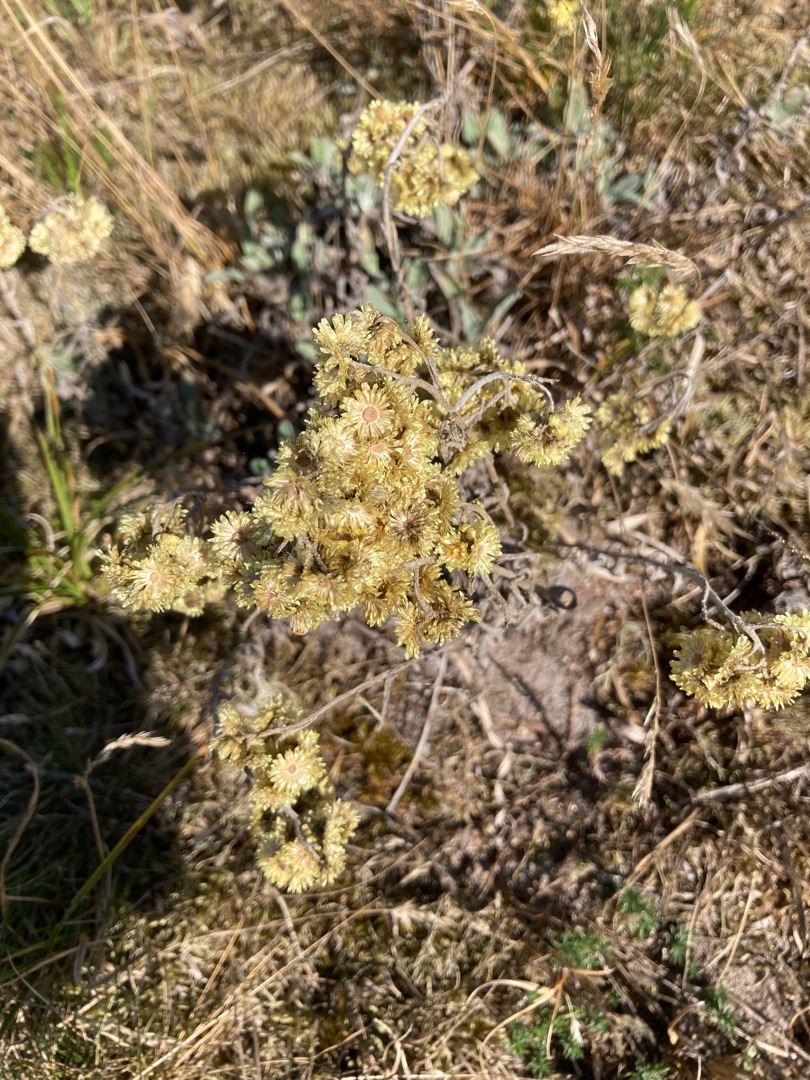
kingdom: Plantae
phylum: Tracheophyta
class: Magnoliopsida
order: Asterales
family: Asteraceae
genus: Helichrysum
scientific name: Helichrysum arenarium
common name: Gul evighedsblomst
